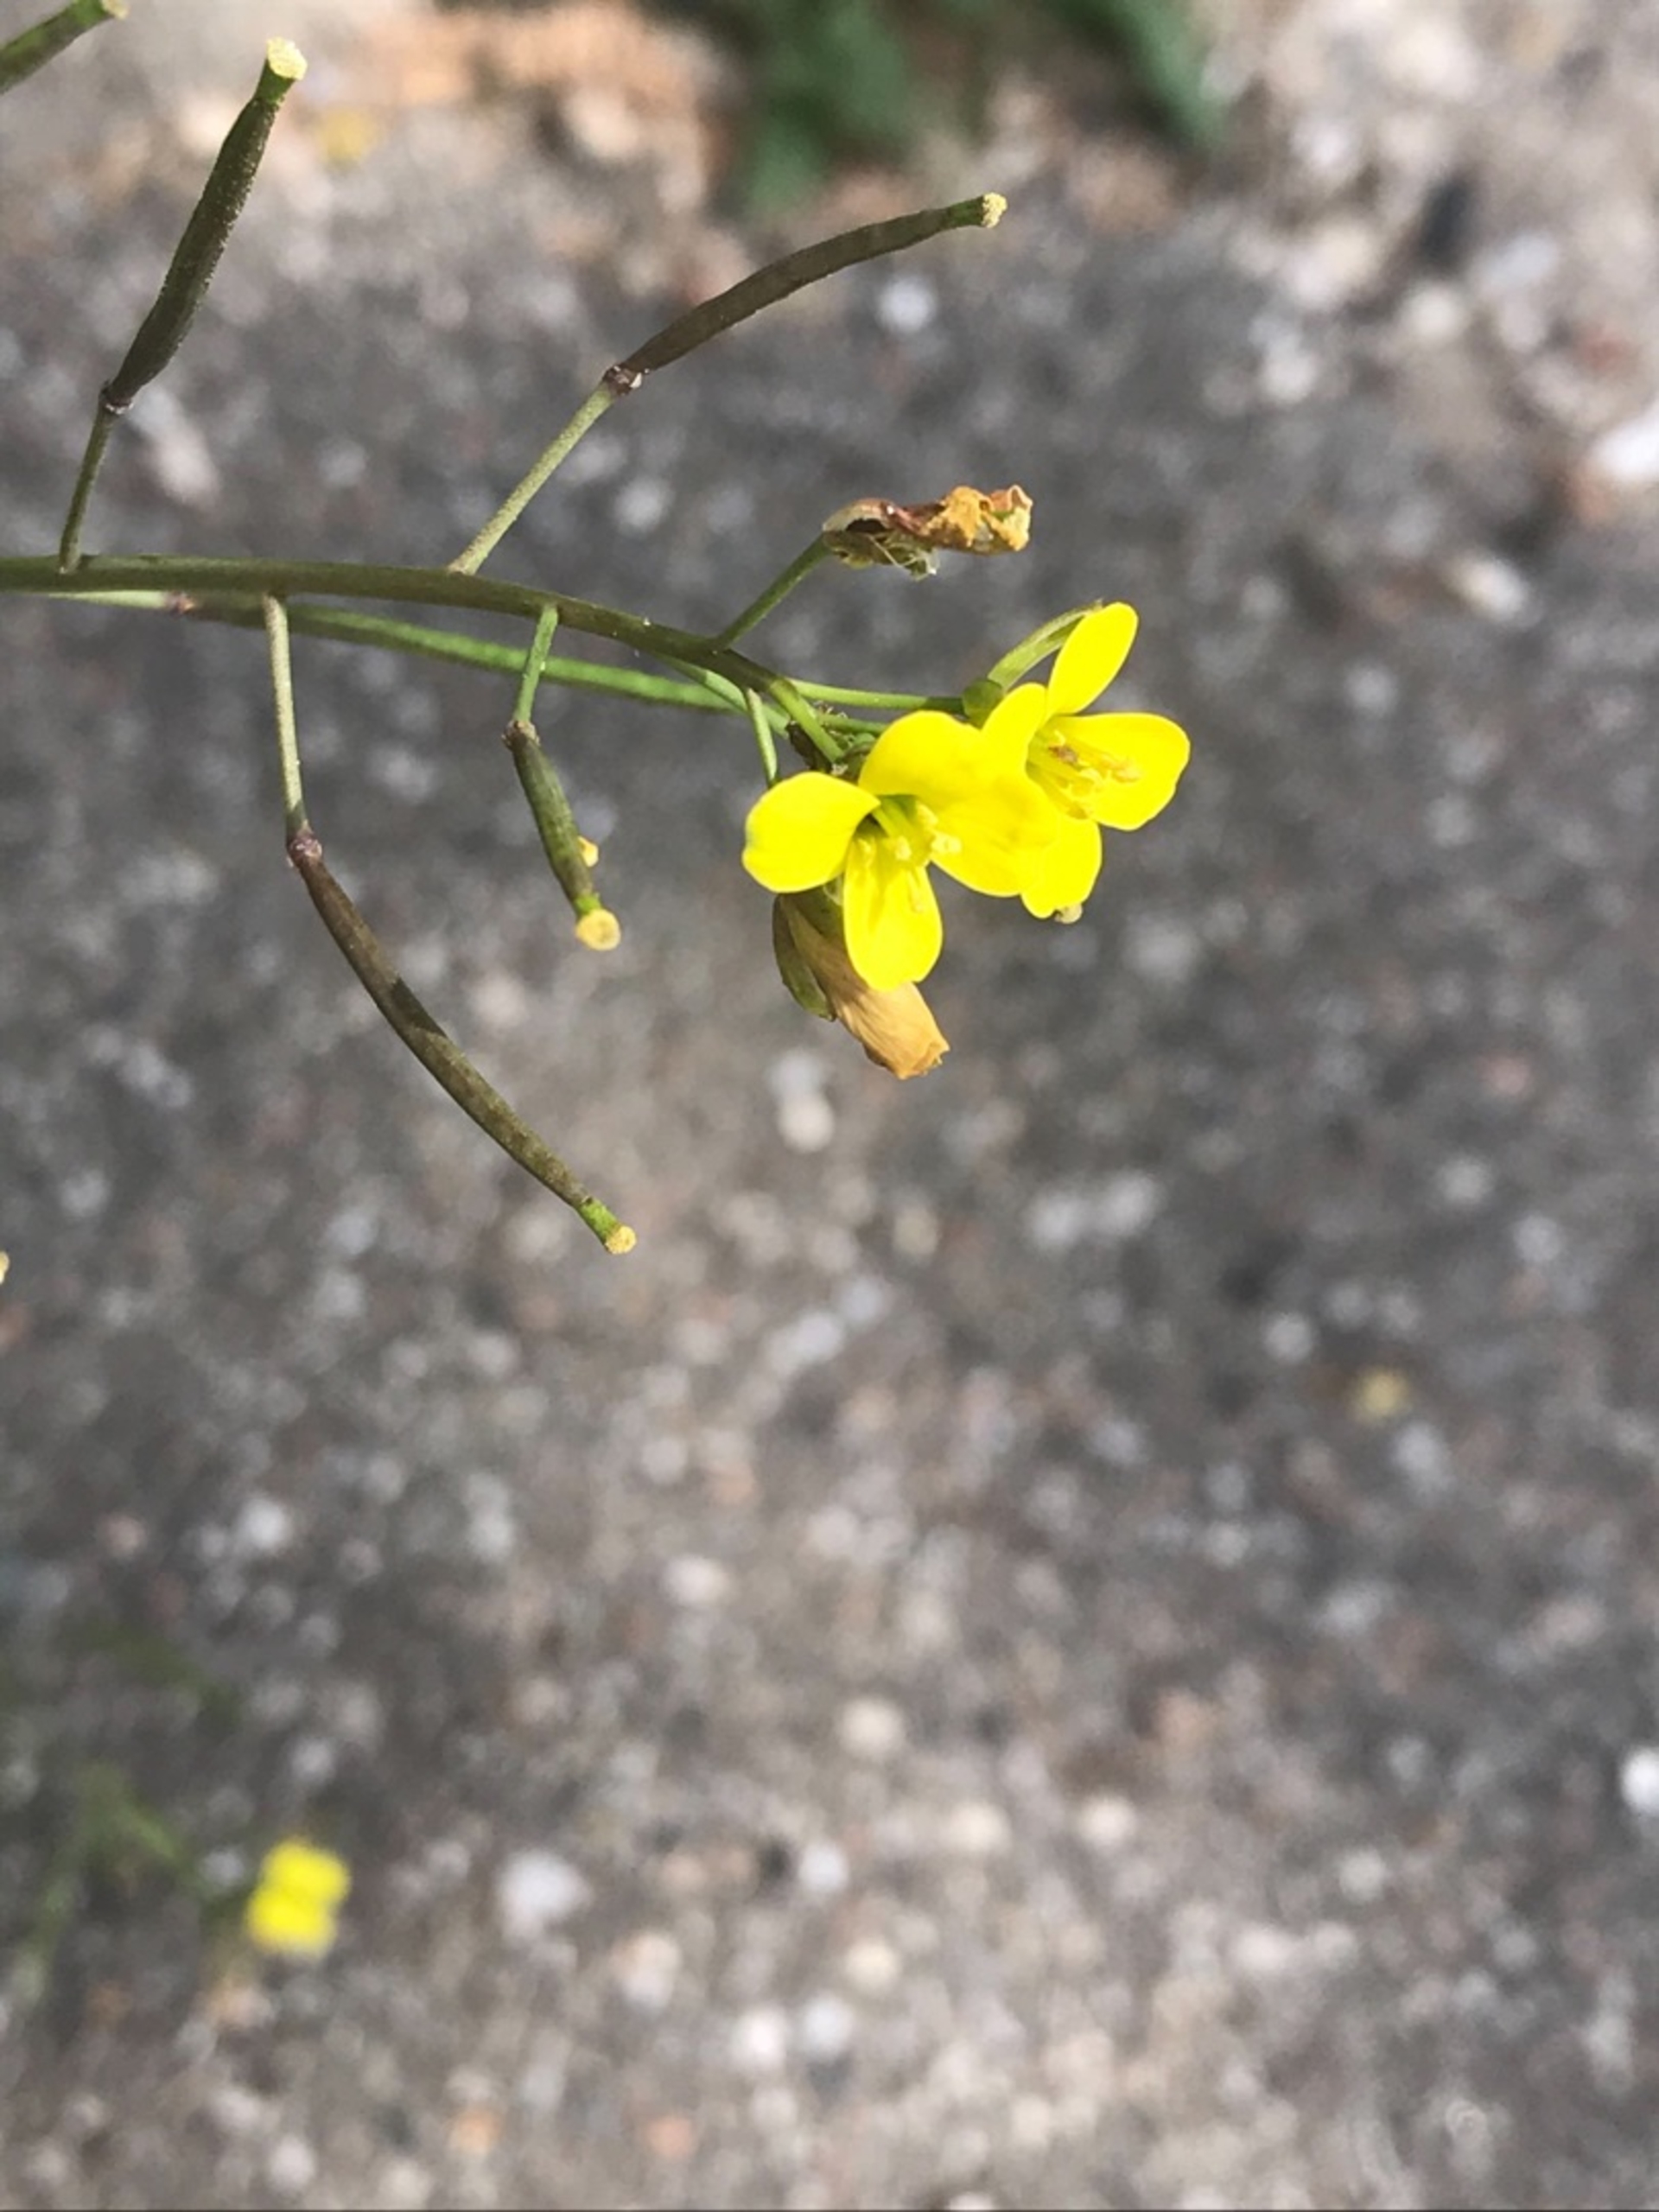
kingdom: Plantae
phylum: Tracheophyta
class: Magnoliopsida
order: Brassicales
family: Brassicaceae
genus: Diplotaxis
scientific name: Diplotaxis muralis
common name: Mursennep
